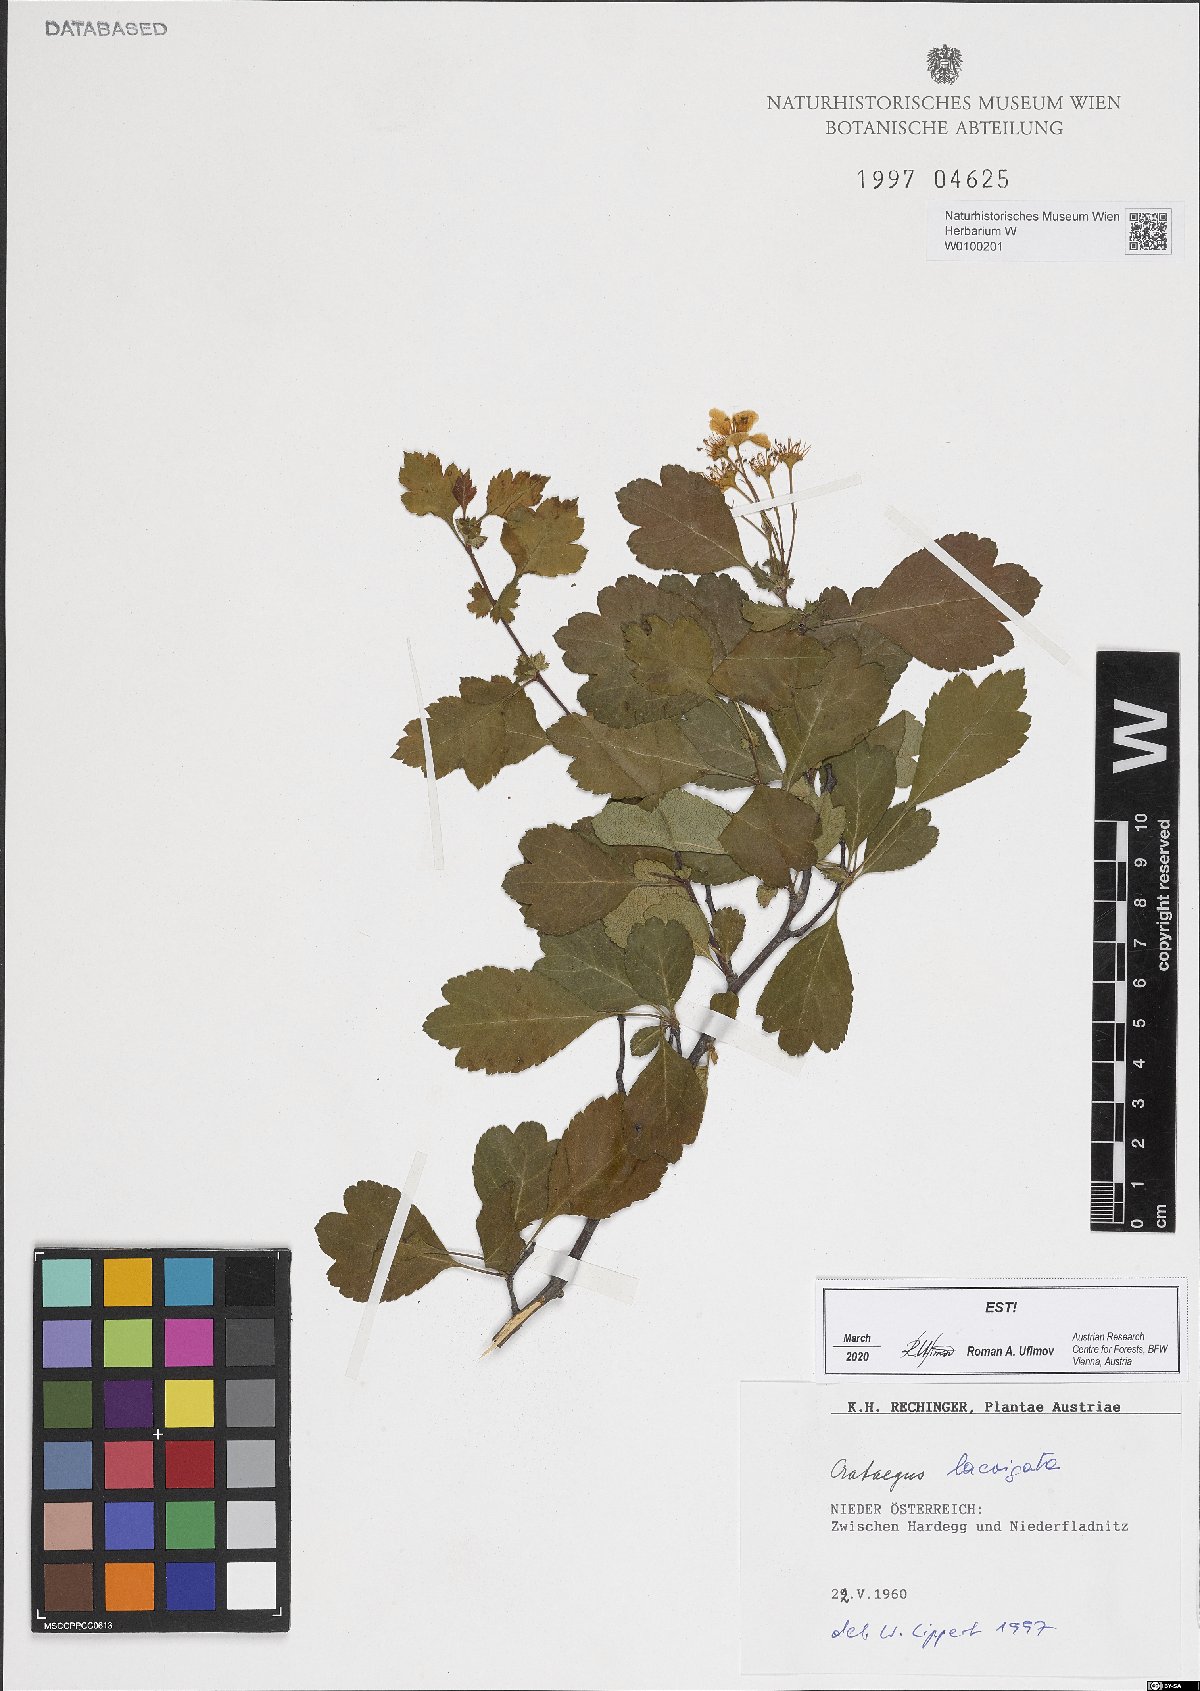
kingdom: Plantae
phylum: Tracheophyta
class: Magnoliopsida
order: Rosales
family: Rosaceae
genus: Crataegus
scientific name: Crataegus laevigata
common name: Midland hawthorn
